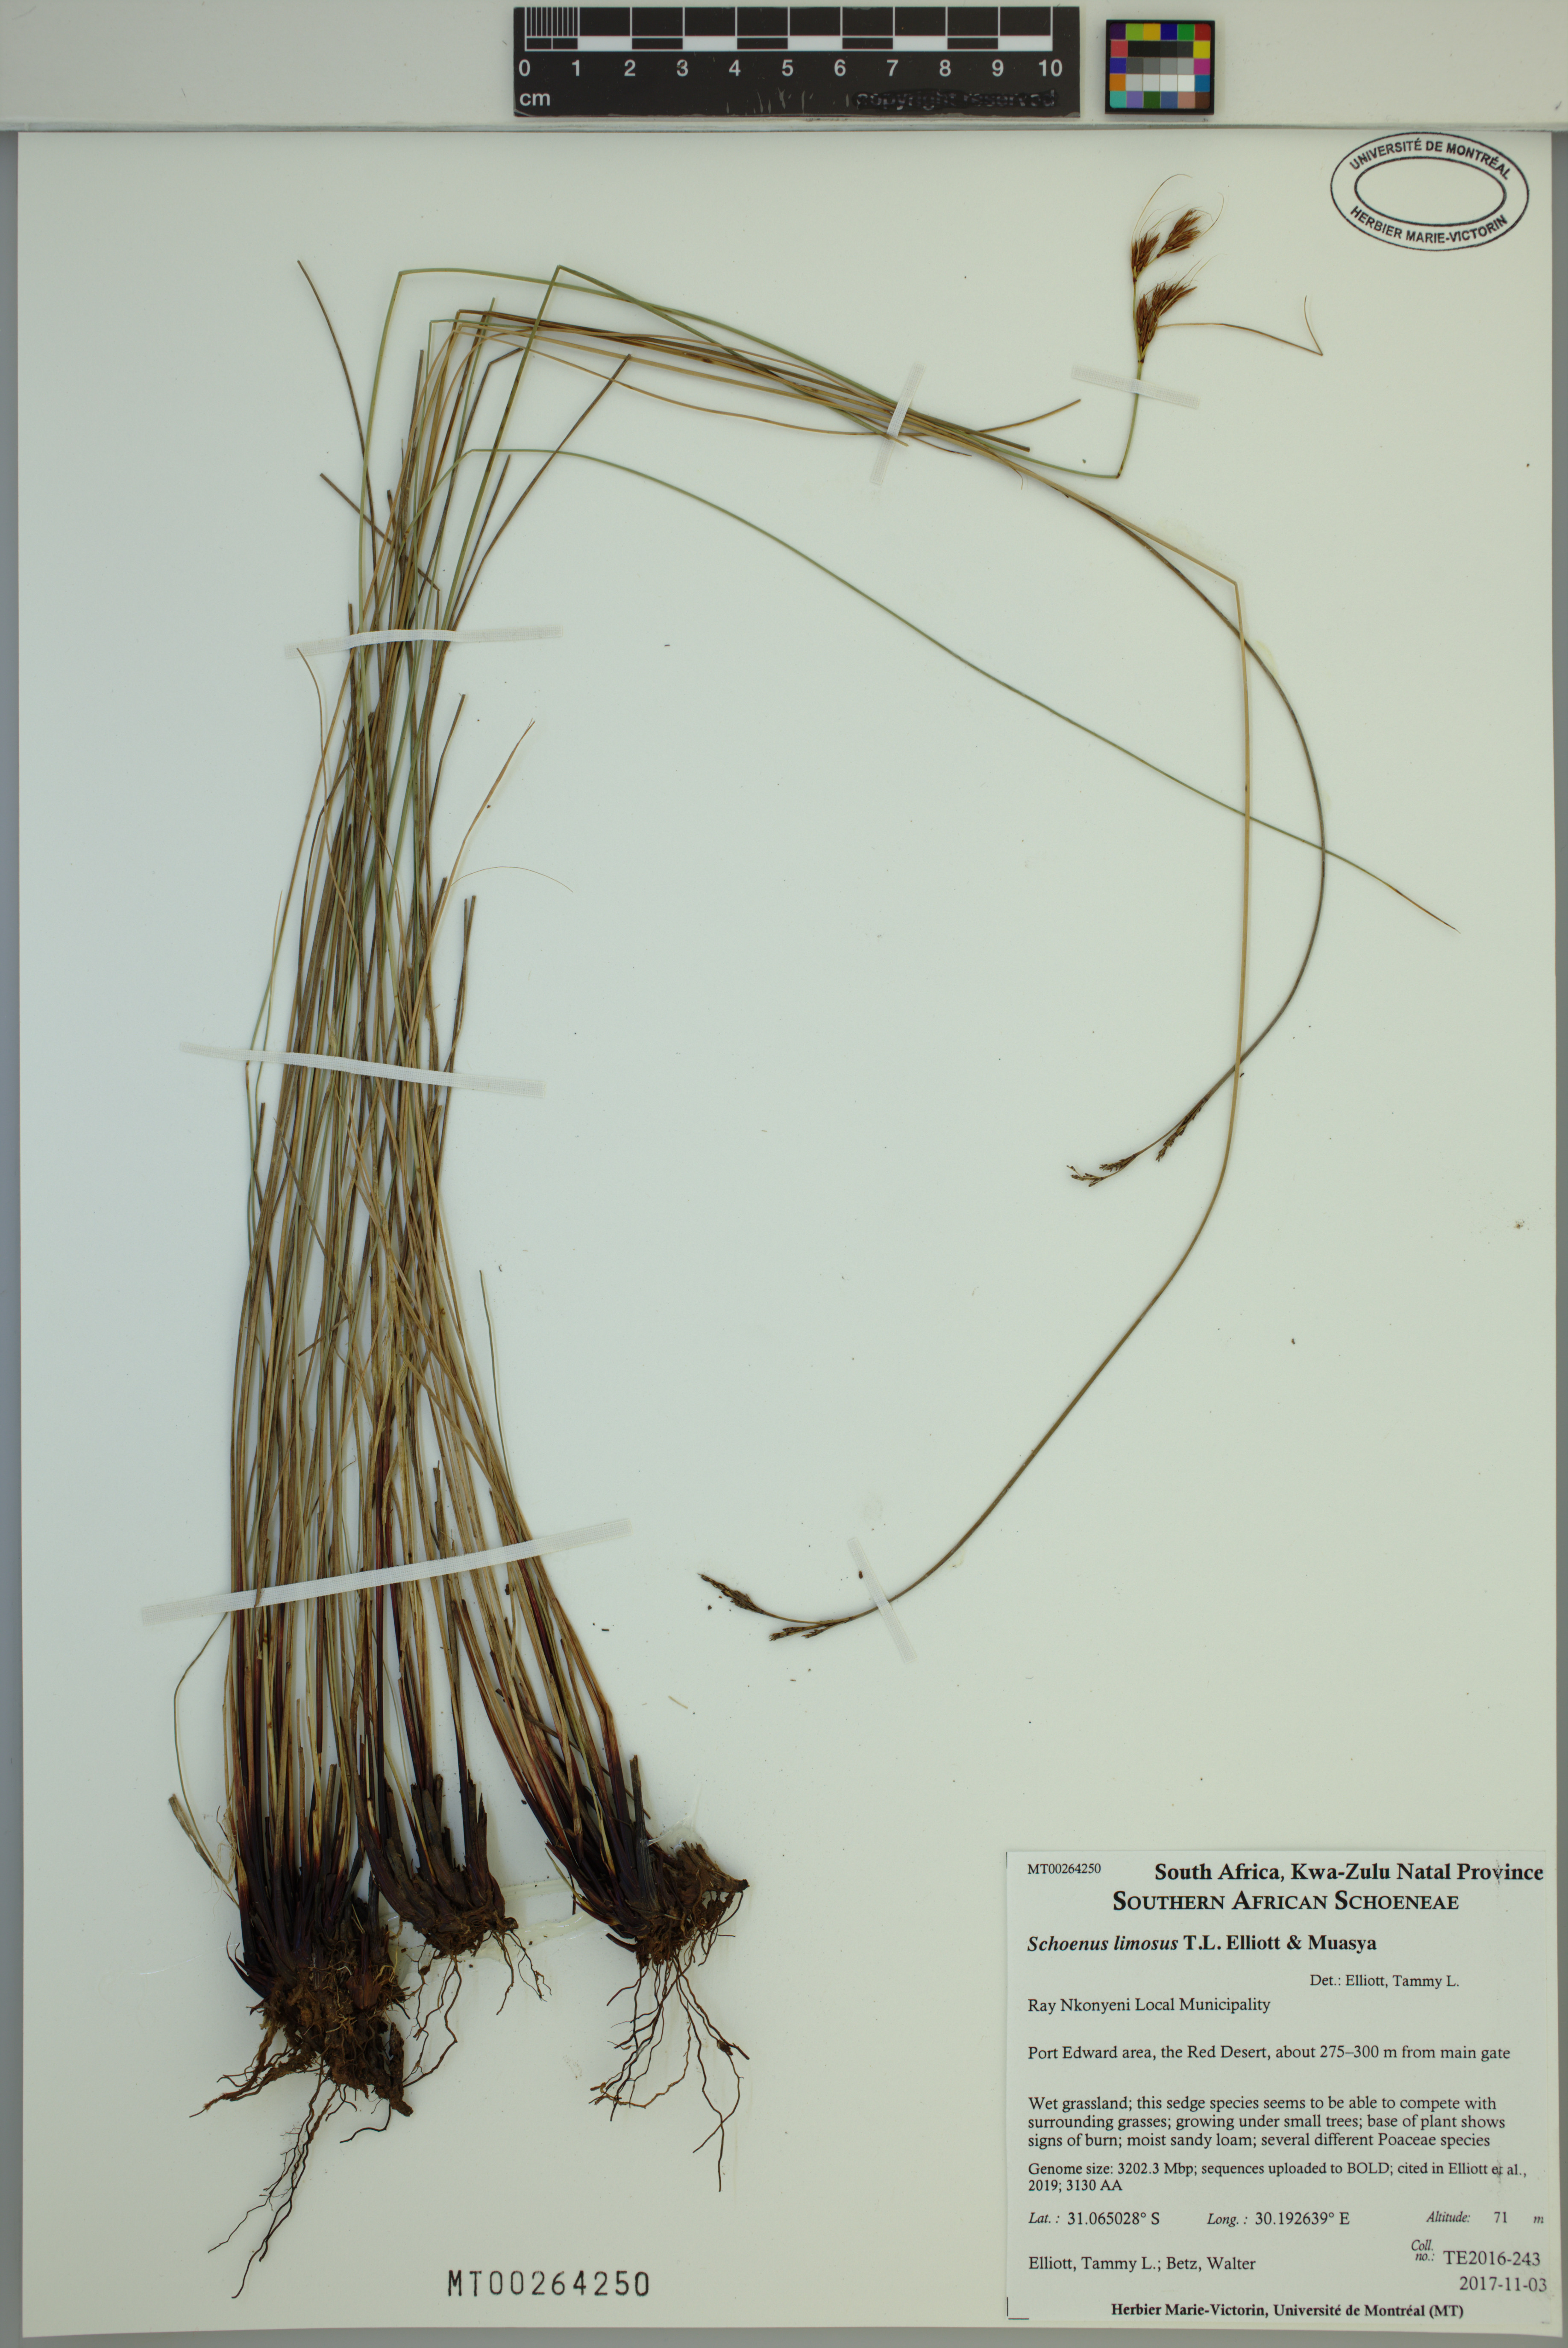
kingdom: Plantae
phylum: Tracheophyta
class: Liliopsida
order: Poales
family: Cyperaceae
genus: Schoenus
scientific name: Schoenus limosus
